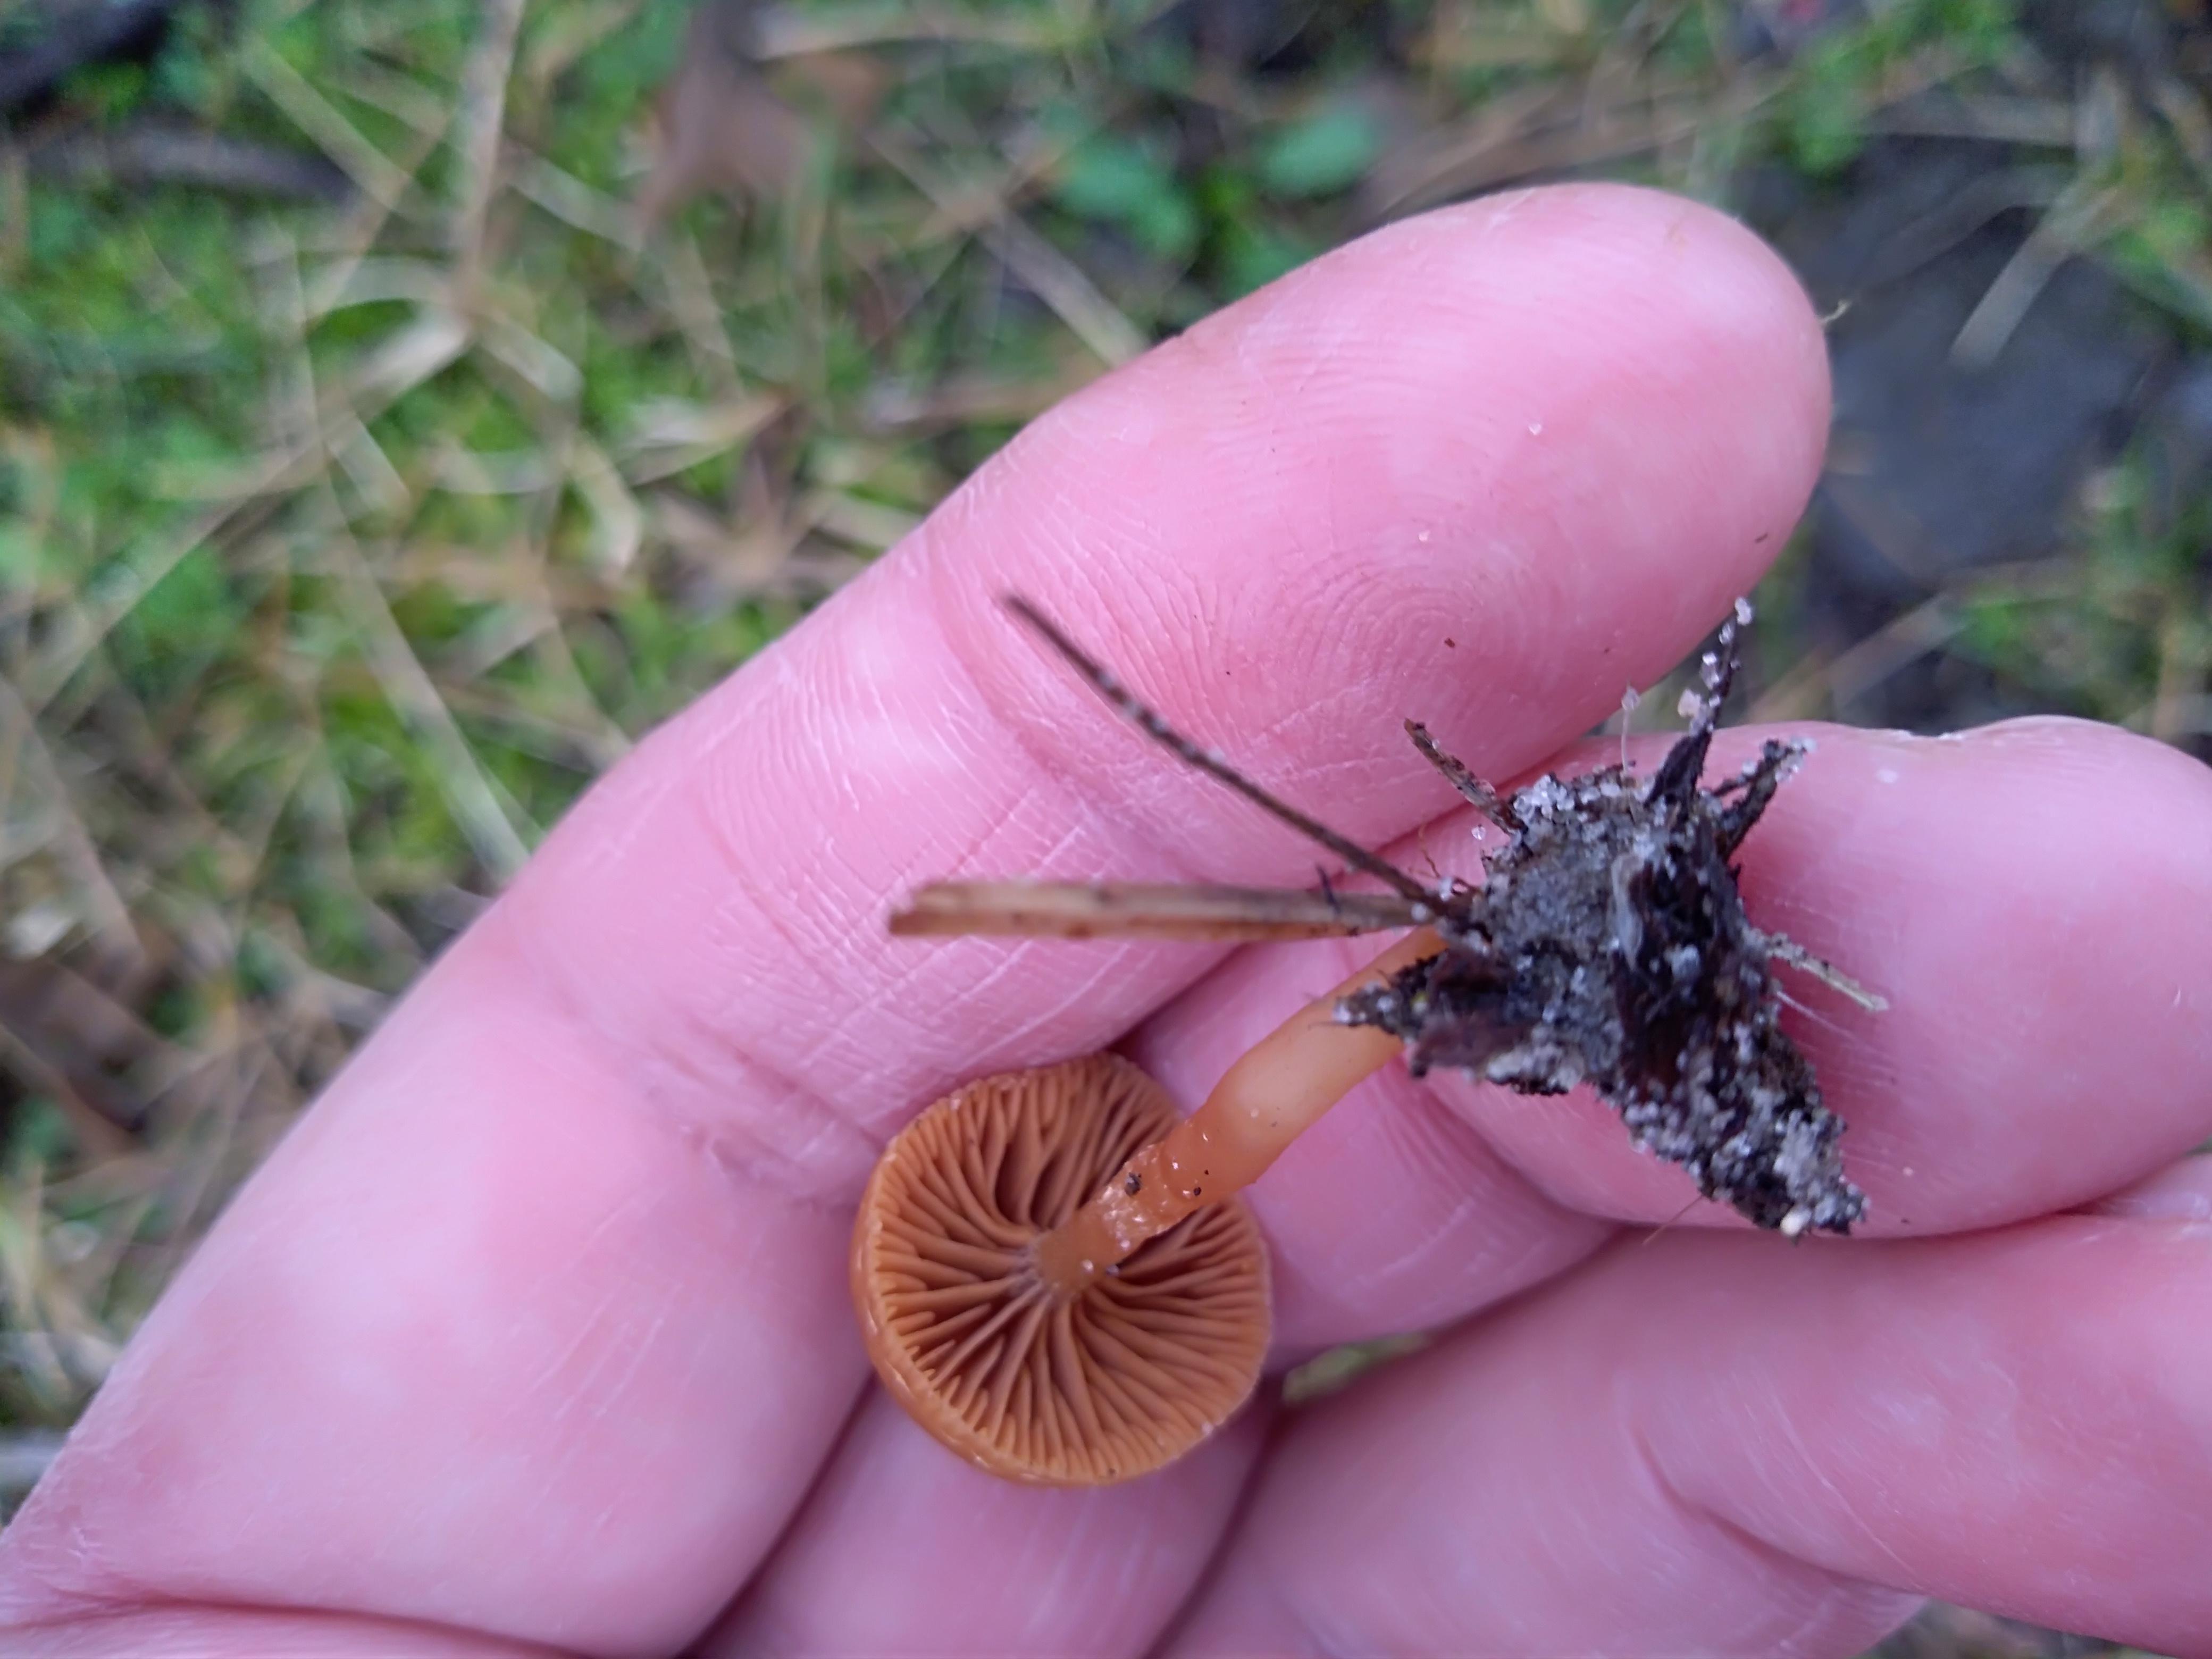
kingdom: Fungi
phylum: Basidiomycota
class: Agaricomycetes
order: Agaricales
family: Tubariaceae
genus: Tubaria
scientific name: Tubaria furfuracea
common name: kliddet fnughat
